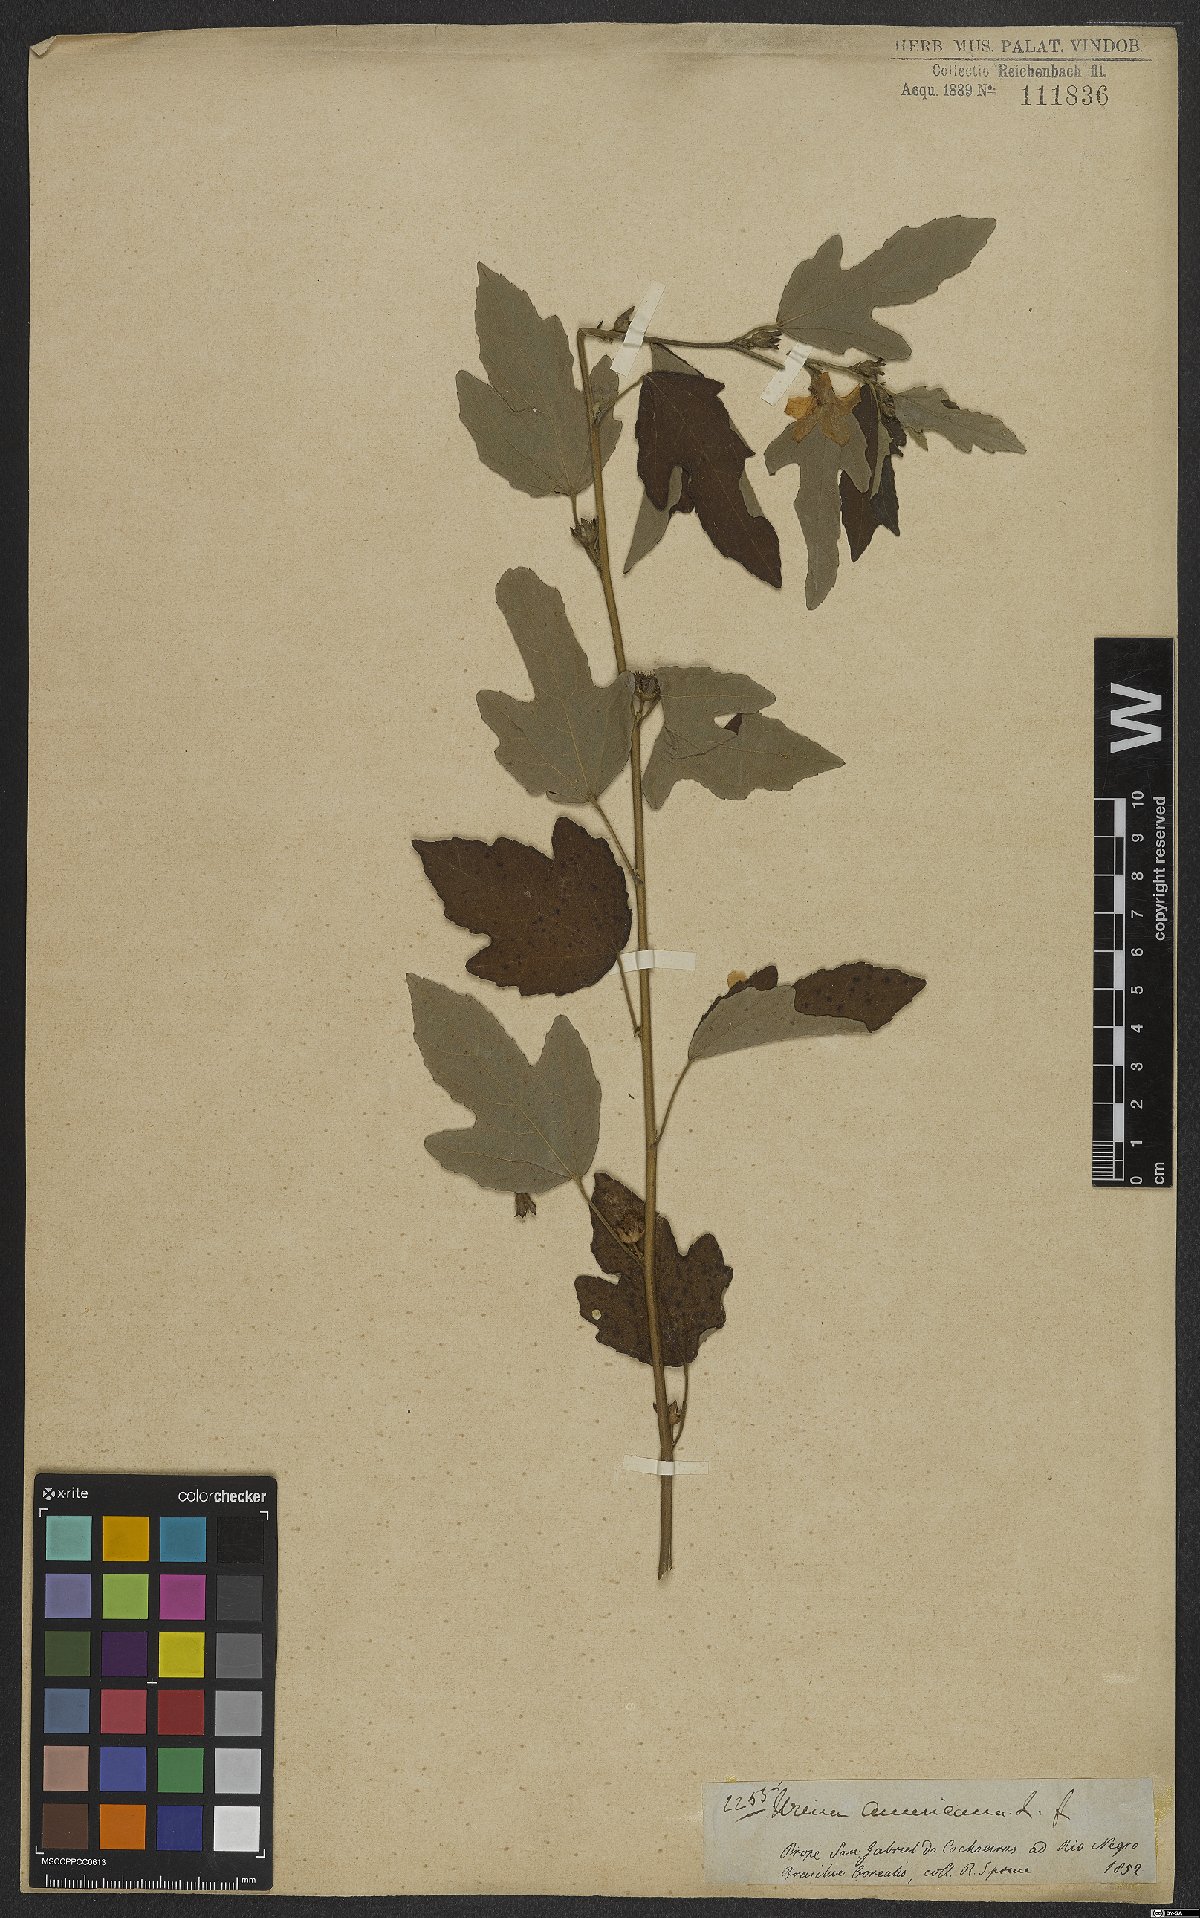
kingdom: Plantae
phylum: Tracheophyta
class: Magnoliopsida
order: Malvales
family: Malvaceae
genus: Urena
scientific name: Urena lobata
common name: Caesarweed
